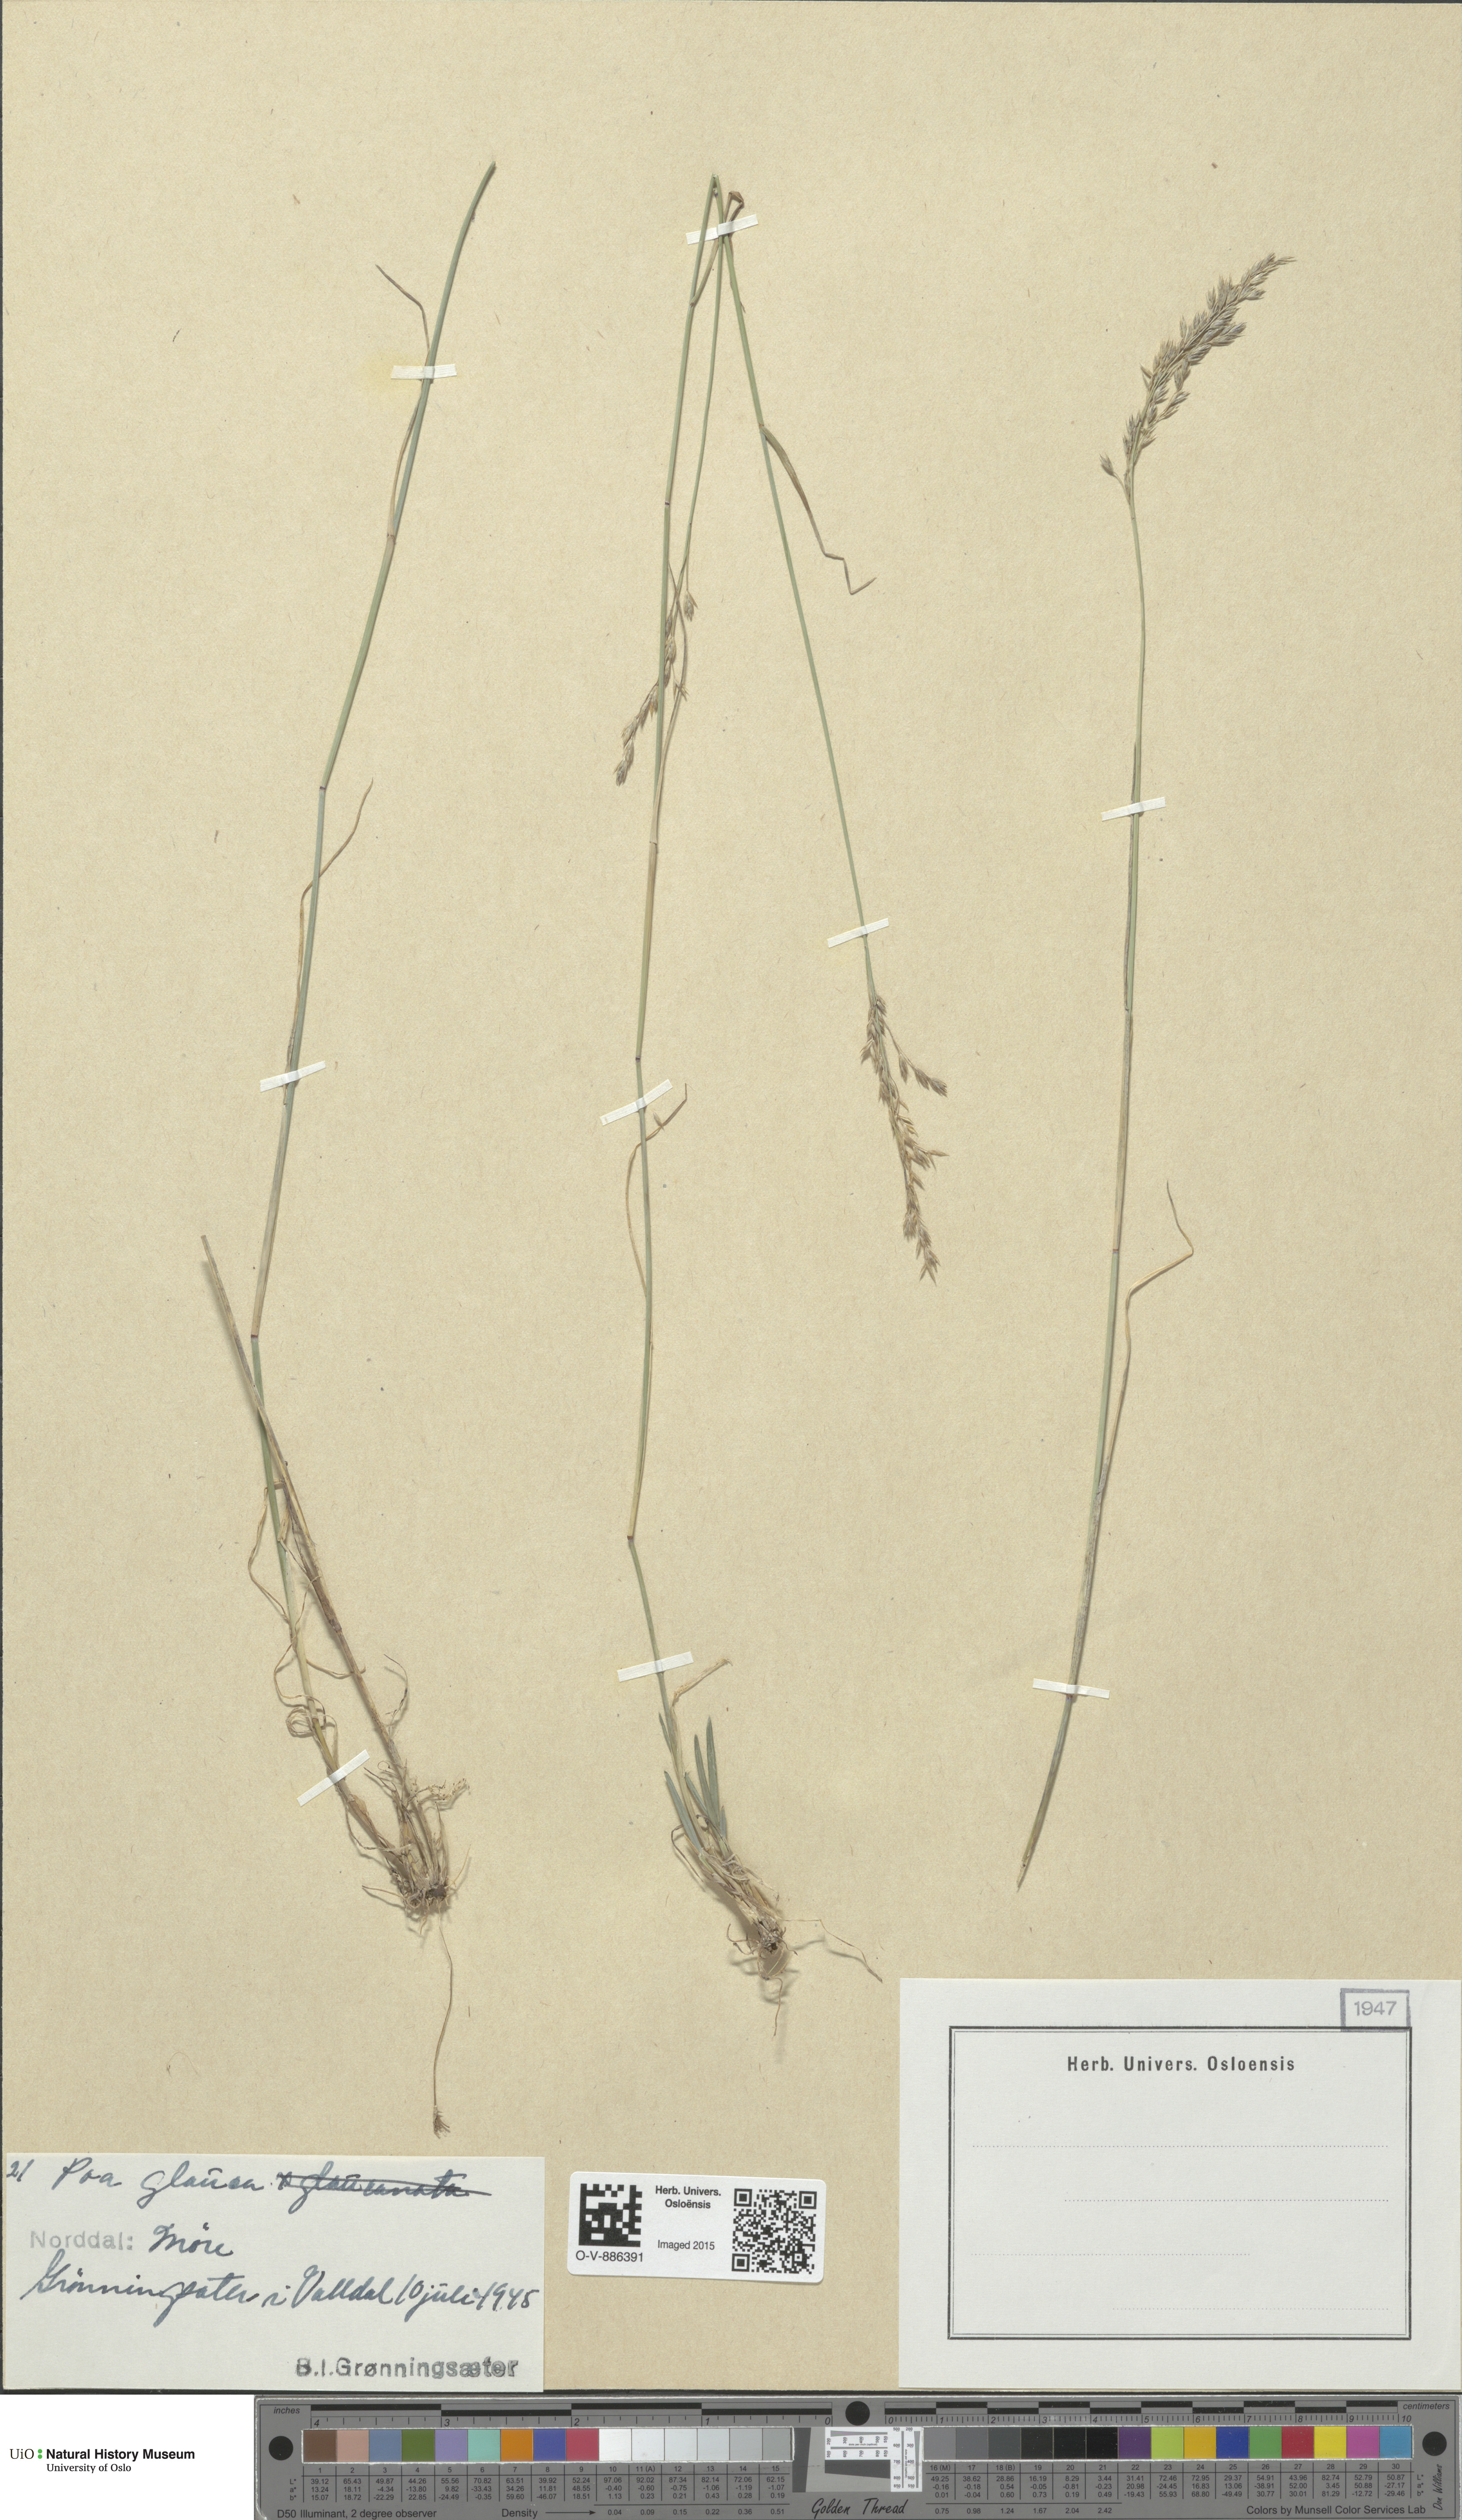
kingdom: Plantae
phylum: Tracheophyta
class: Liliopsida
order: Poales
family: Poaceae
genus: Poa
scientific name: Poa glauca
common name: Glaucous bluegrass
